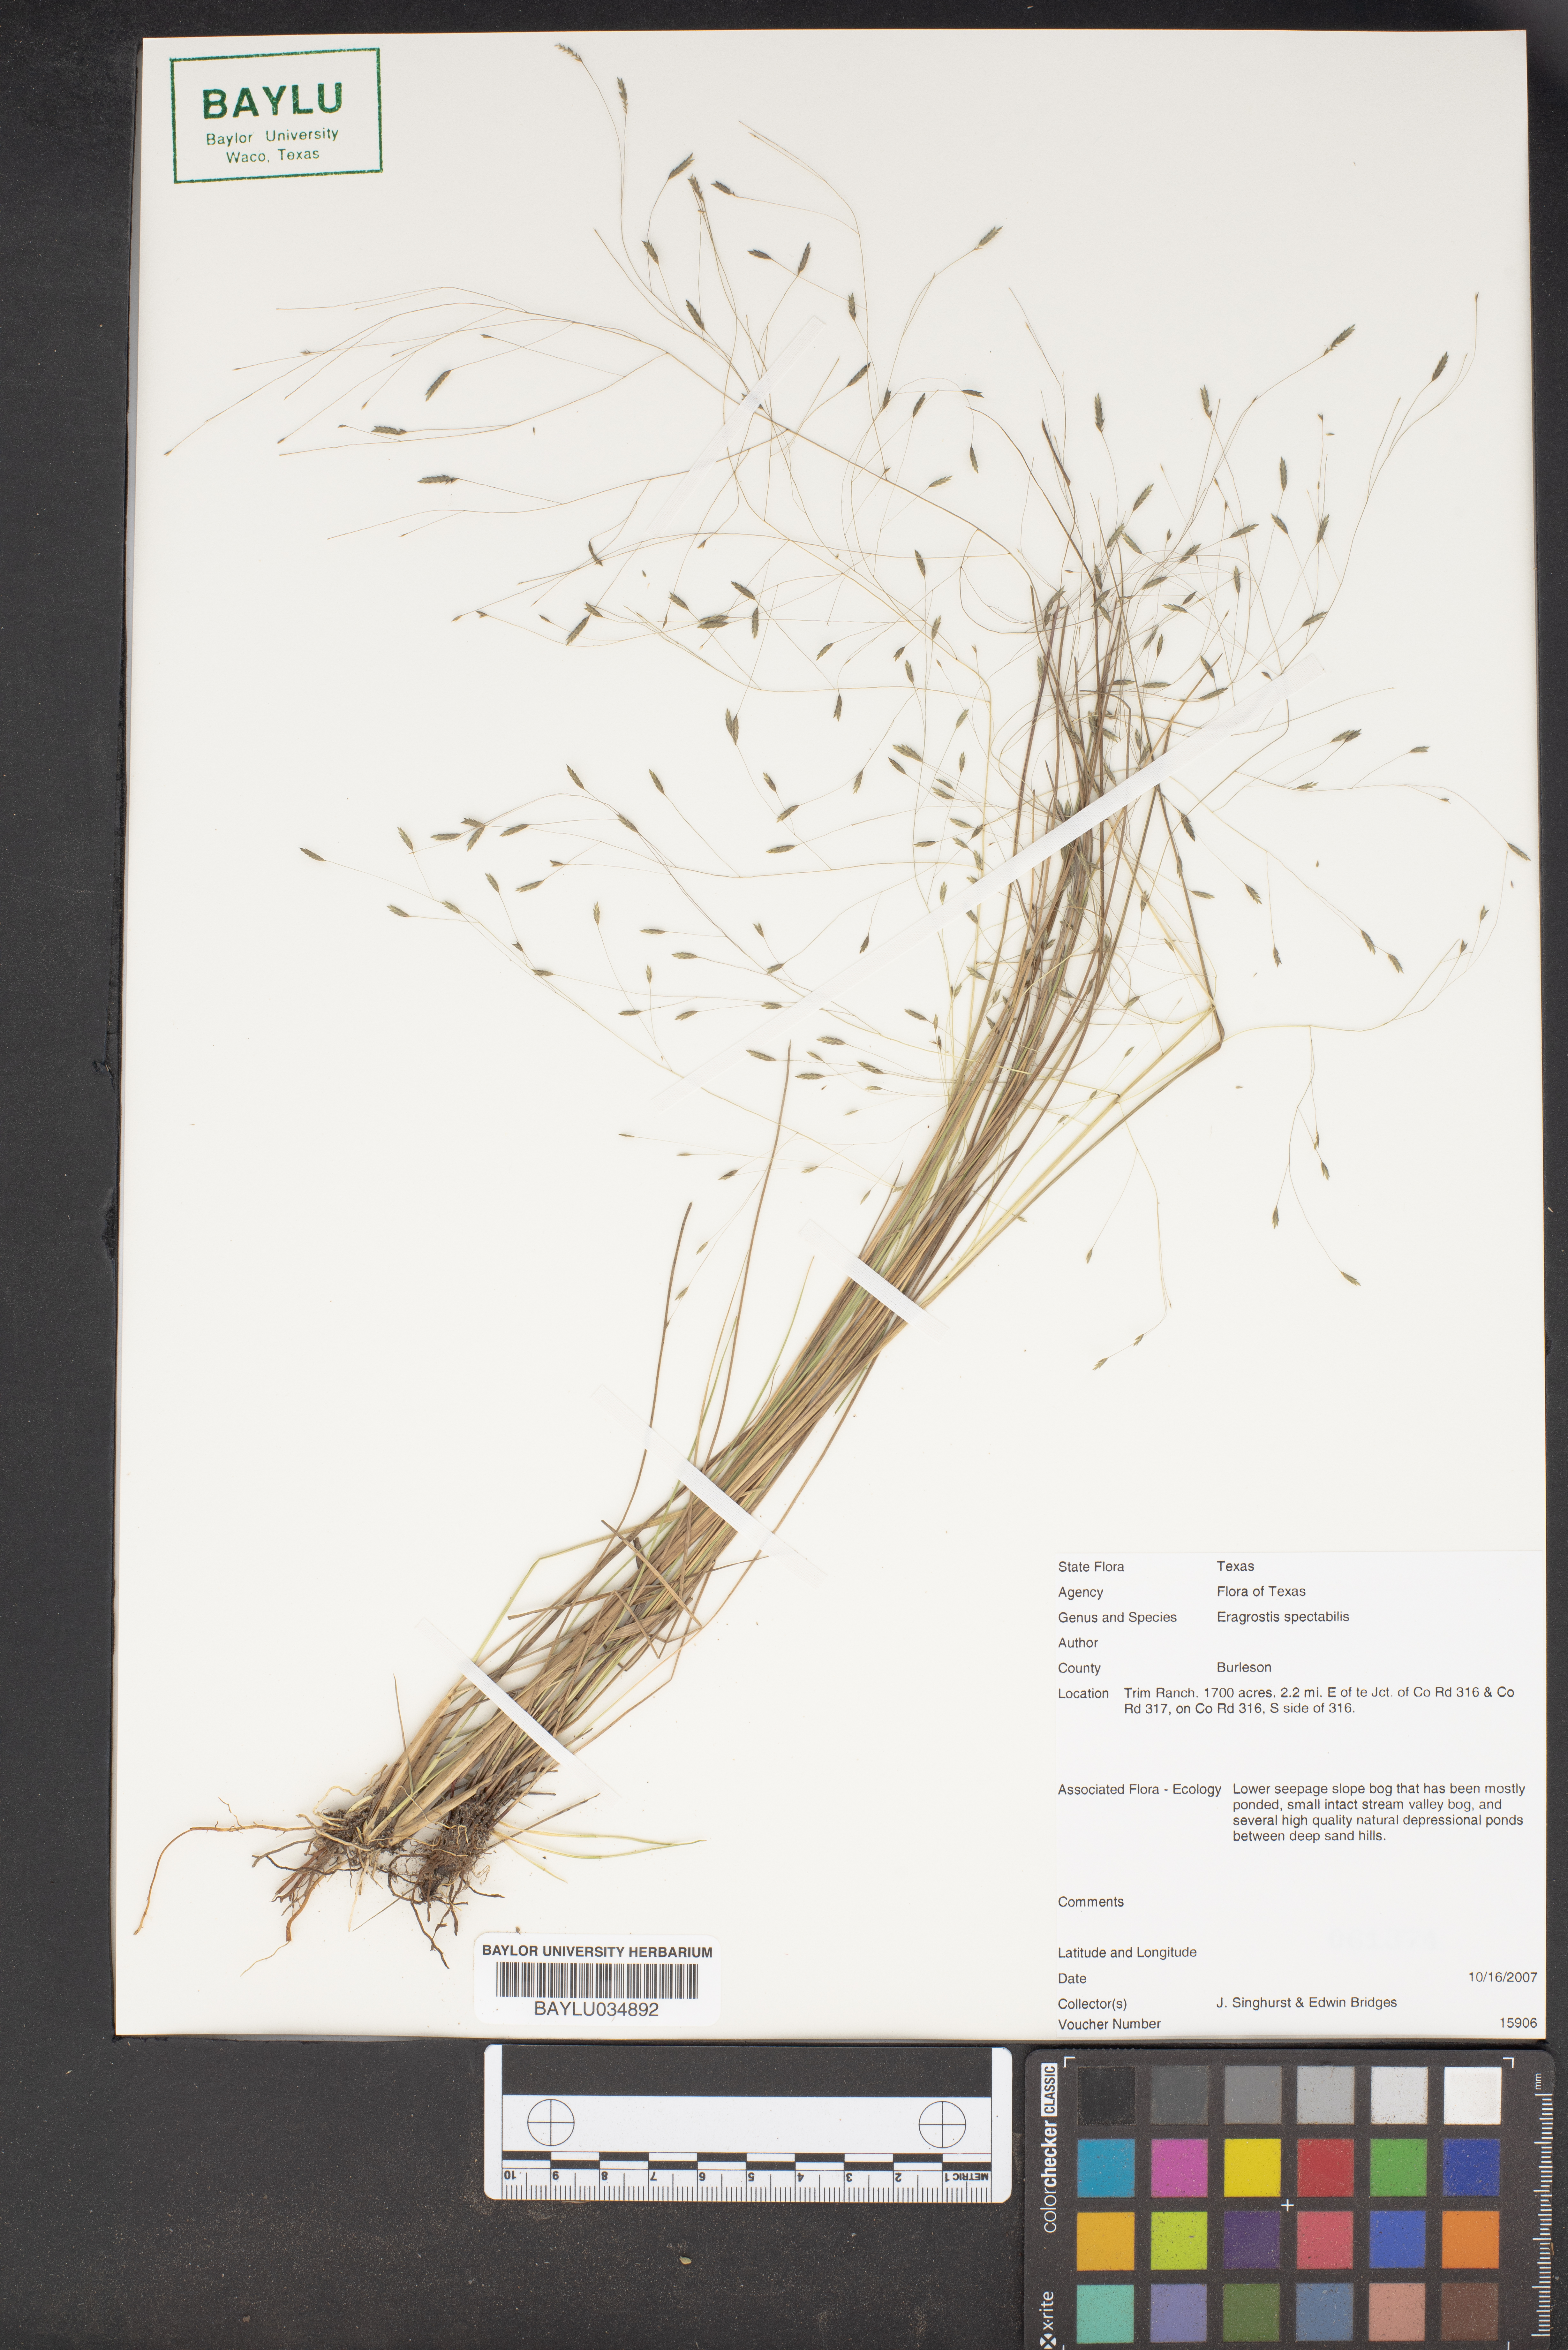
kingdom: Plantae
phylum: Tracheophyta
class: Liliopsida
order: Poales
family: Poaceae
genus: Eragrostis
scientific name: Eragrostis spectabilis
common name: Petticoat-climber
